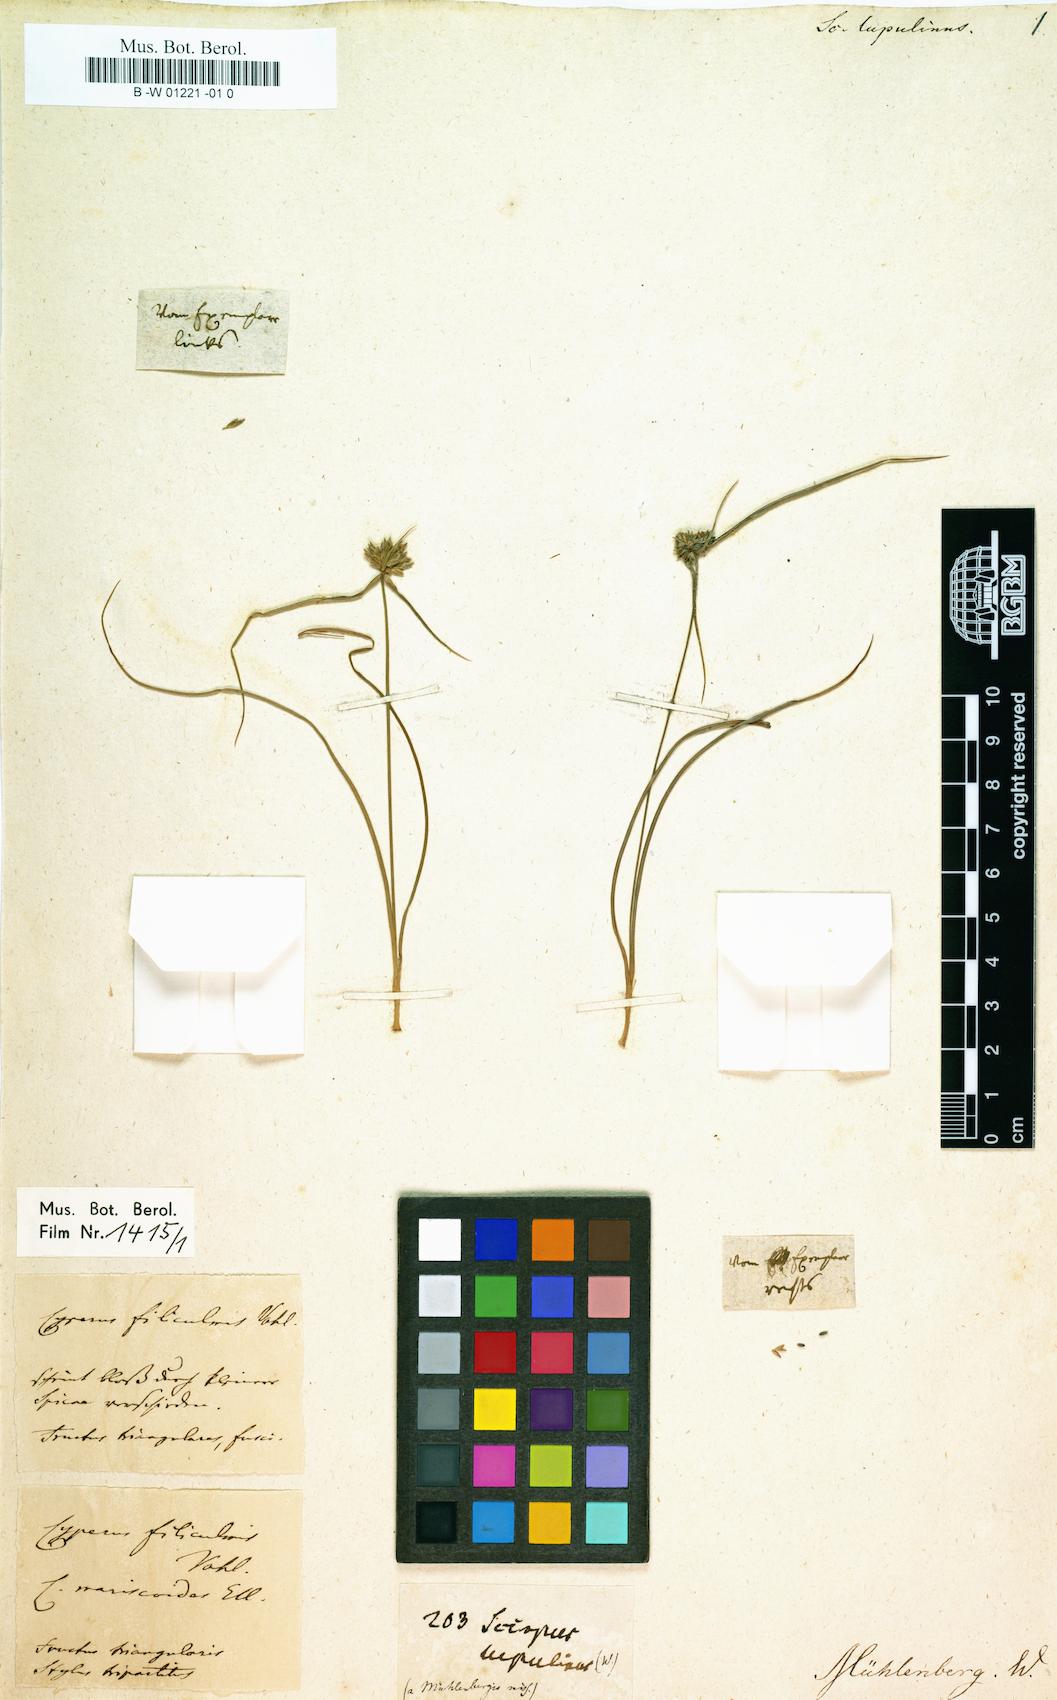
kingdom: Plantae
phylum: Tracheophyta
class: Liliopsida
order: Poales
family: Cyperaceae
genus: Cyperus
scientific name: Cyperus lupulinus
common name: Great plains flatsedge
